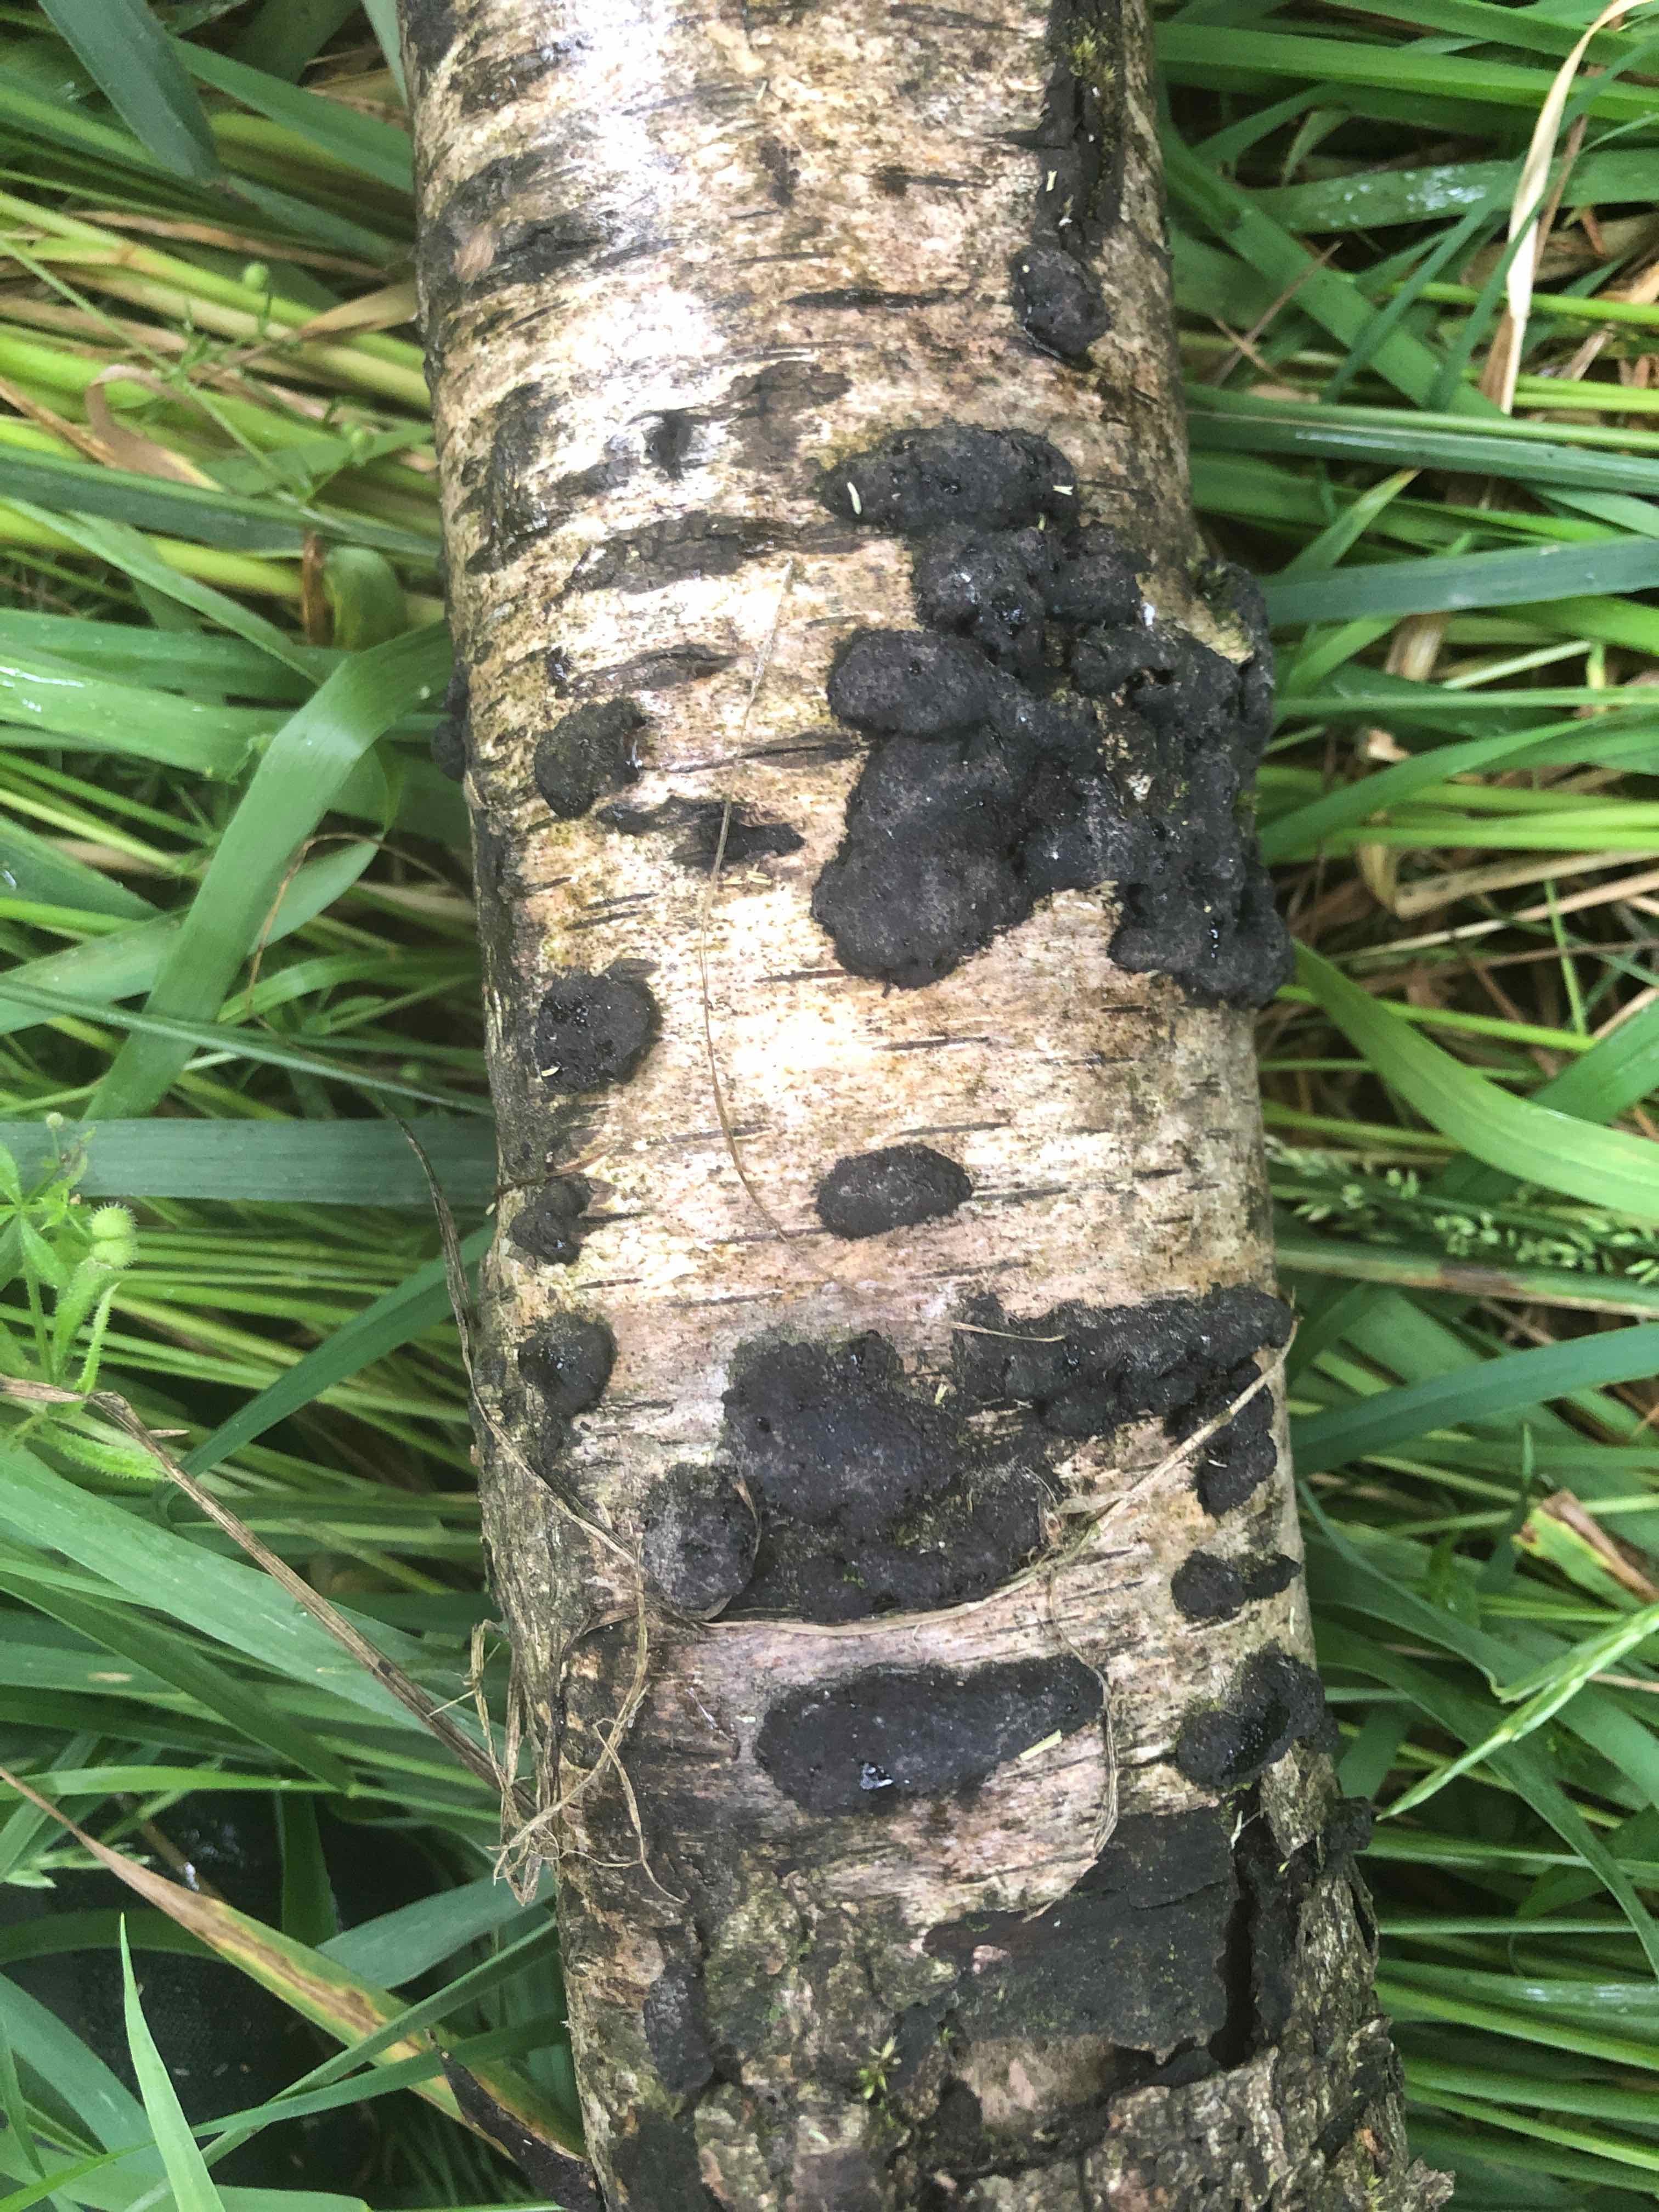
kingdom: Fungi
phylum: Ascomycota
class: Sordariomycetes
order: Xylariales
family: Hypoxylaceae
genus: Jackrogersella
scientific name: Jackrogersella multiformis
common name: foranderlig kulbær
